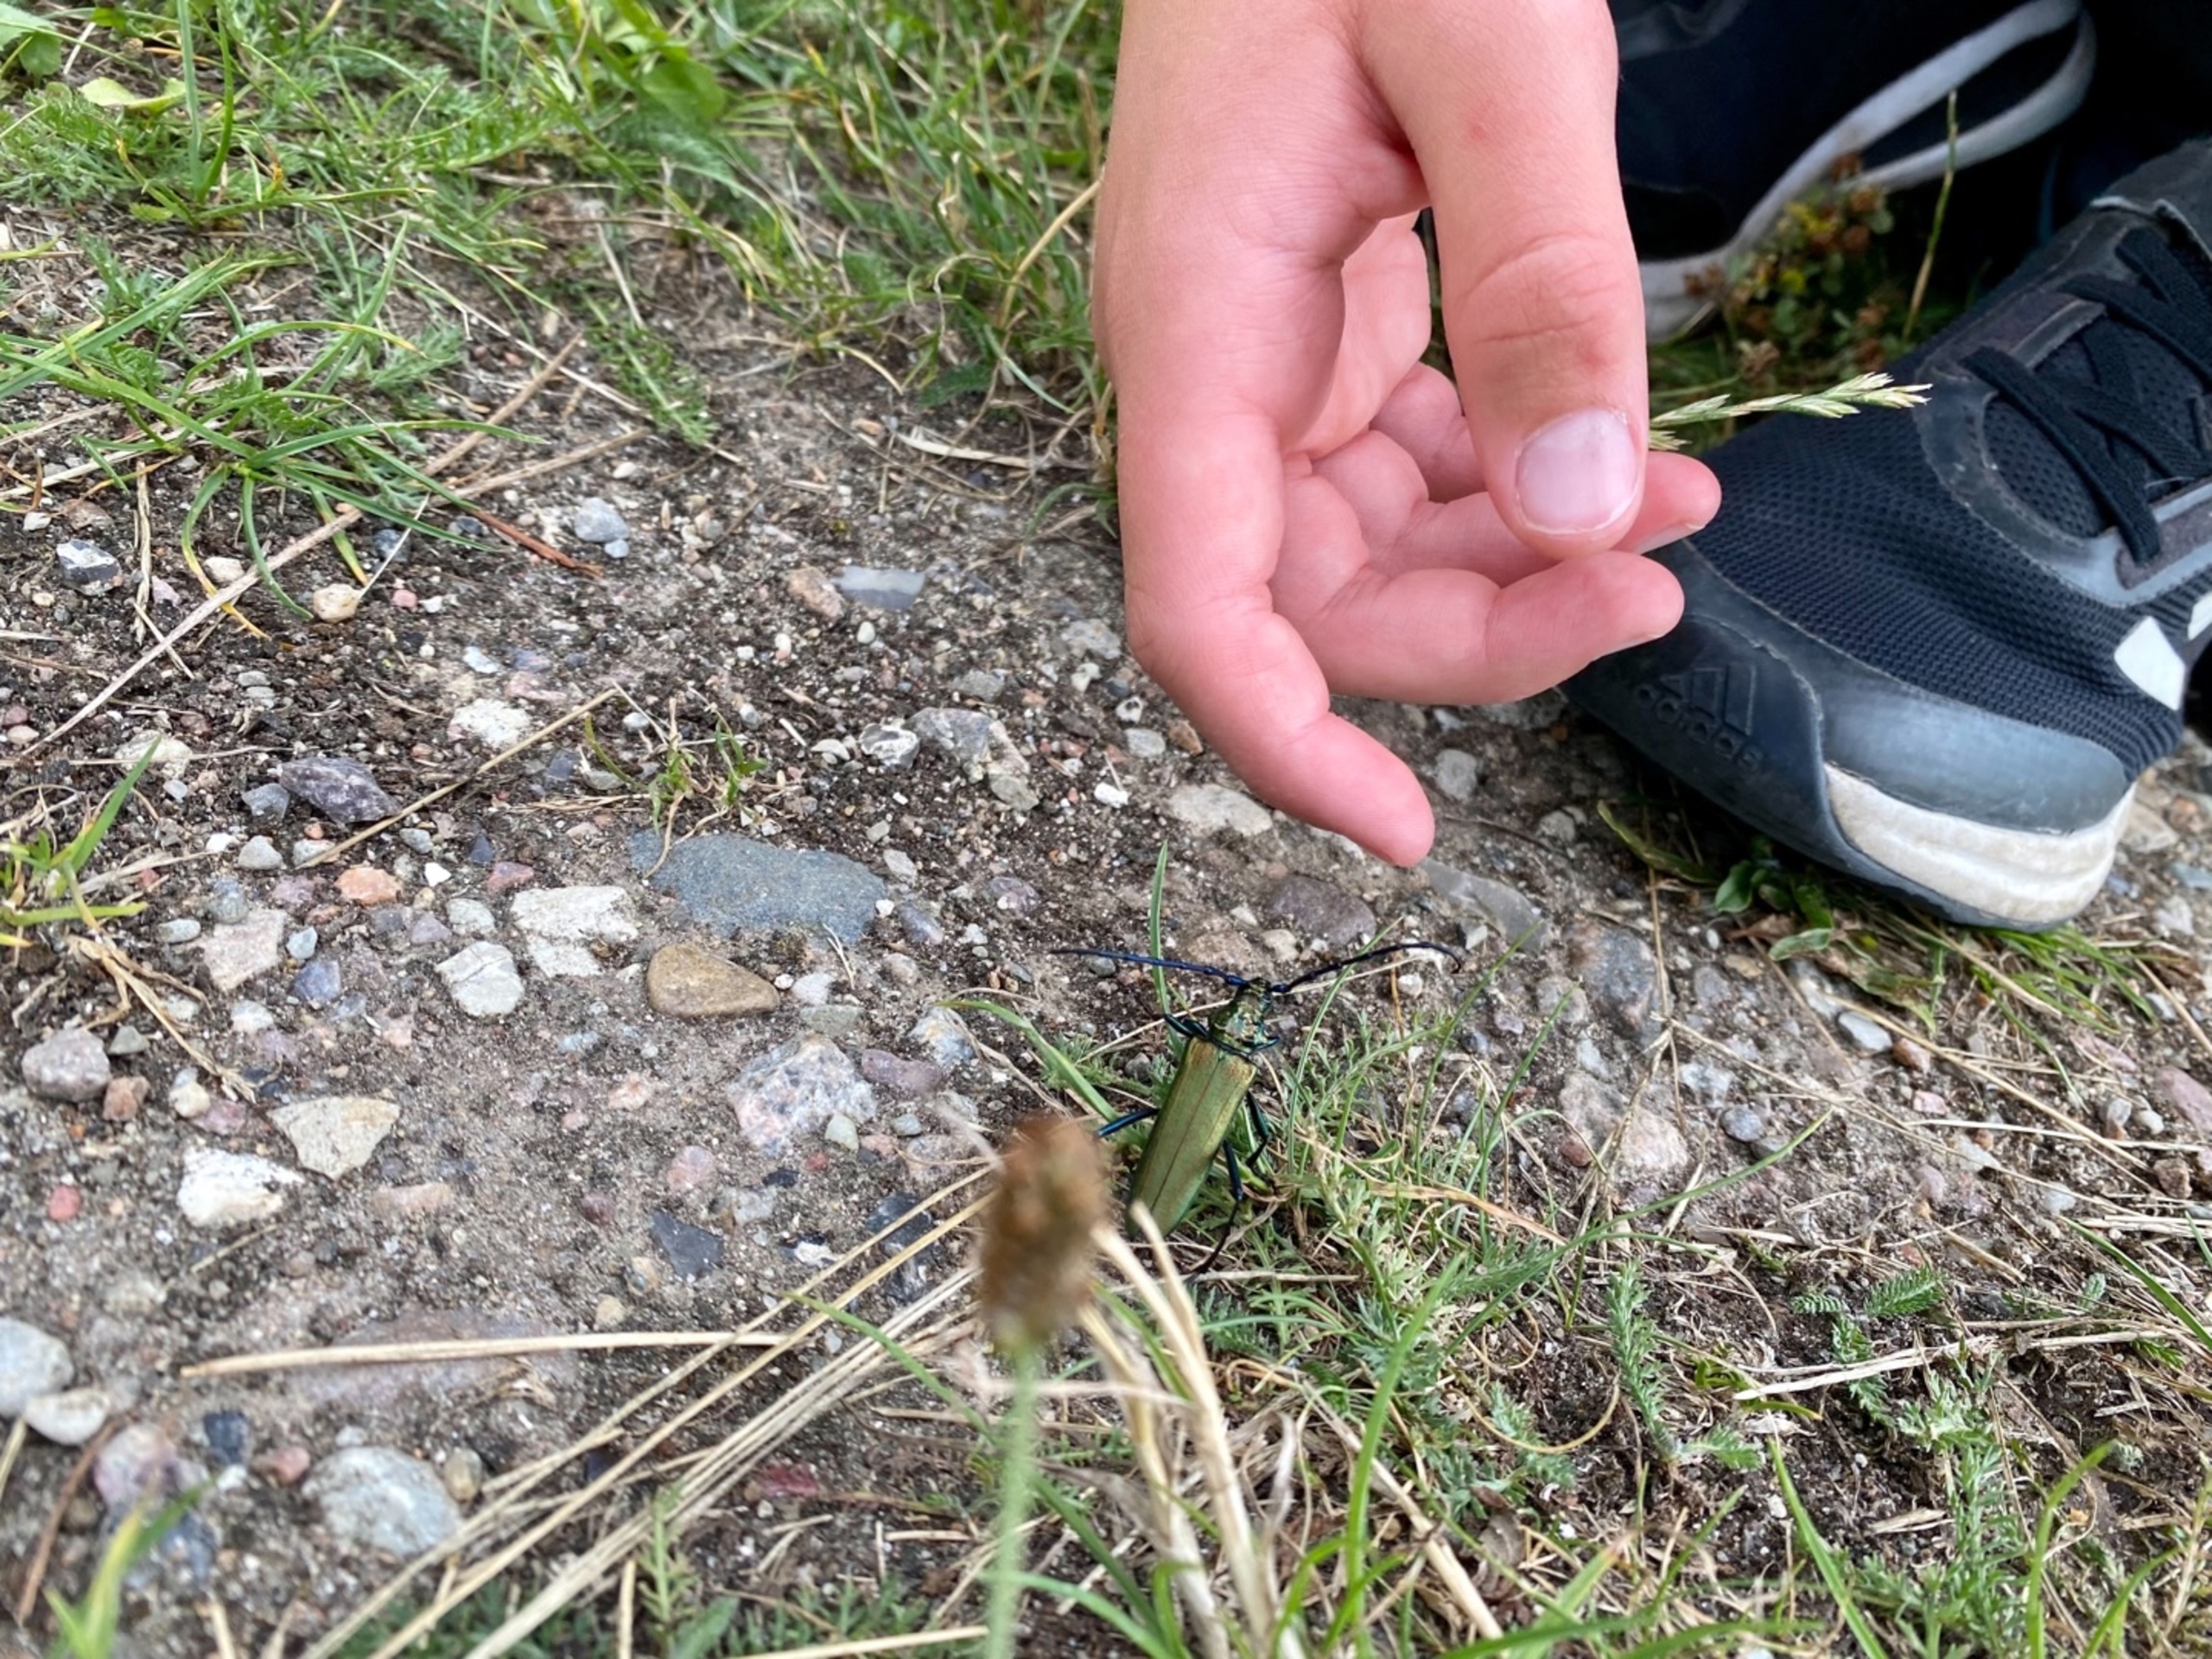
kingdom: Animalia
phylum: Arthropoda
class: Insecta
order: Coleoptera
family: Cerambycidae
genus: Aromia
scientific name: Aromia moschata
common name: Moskusbuk
